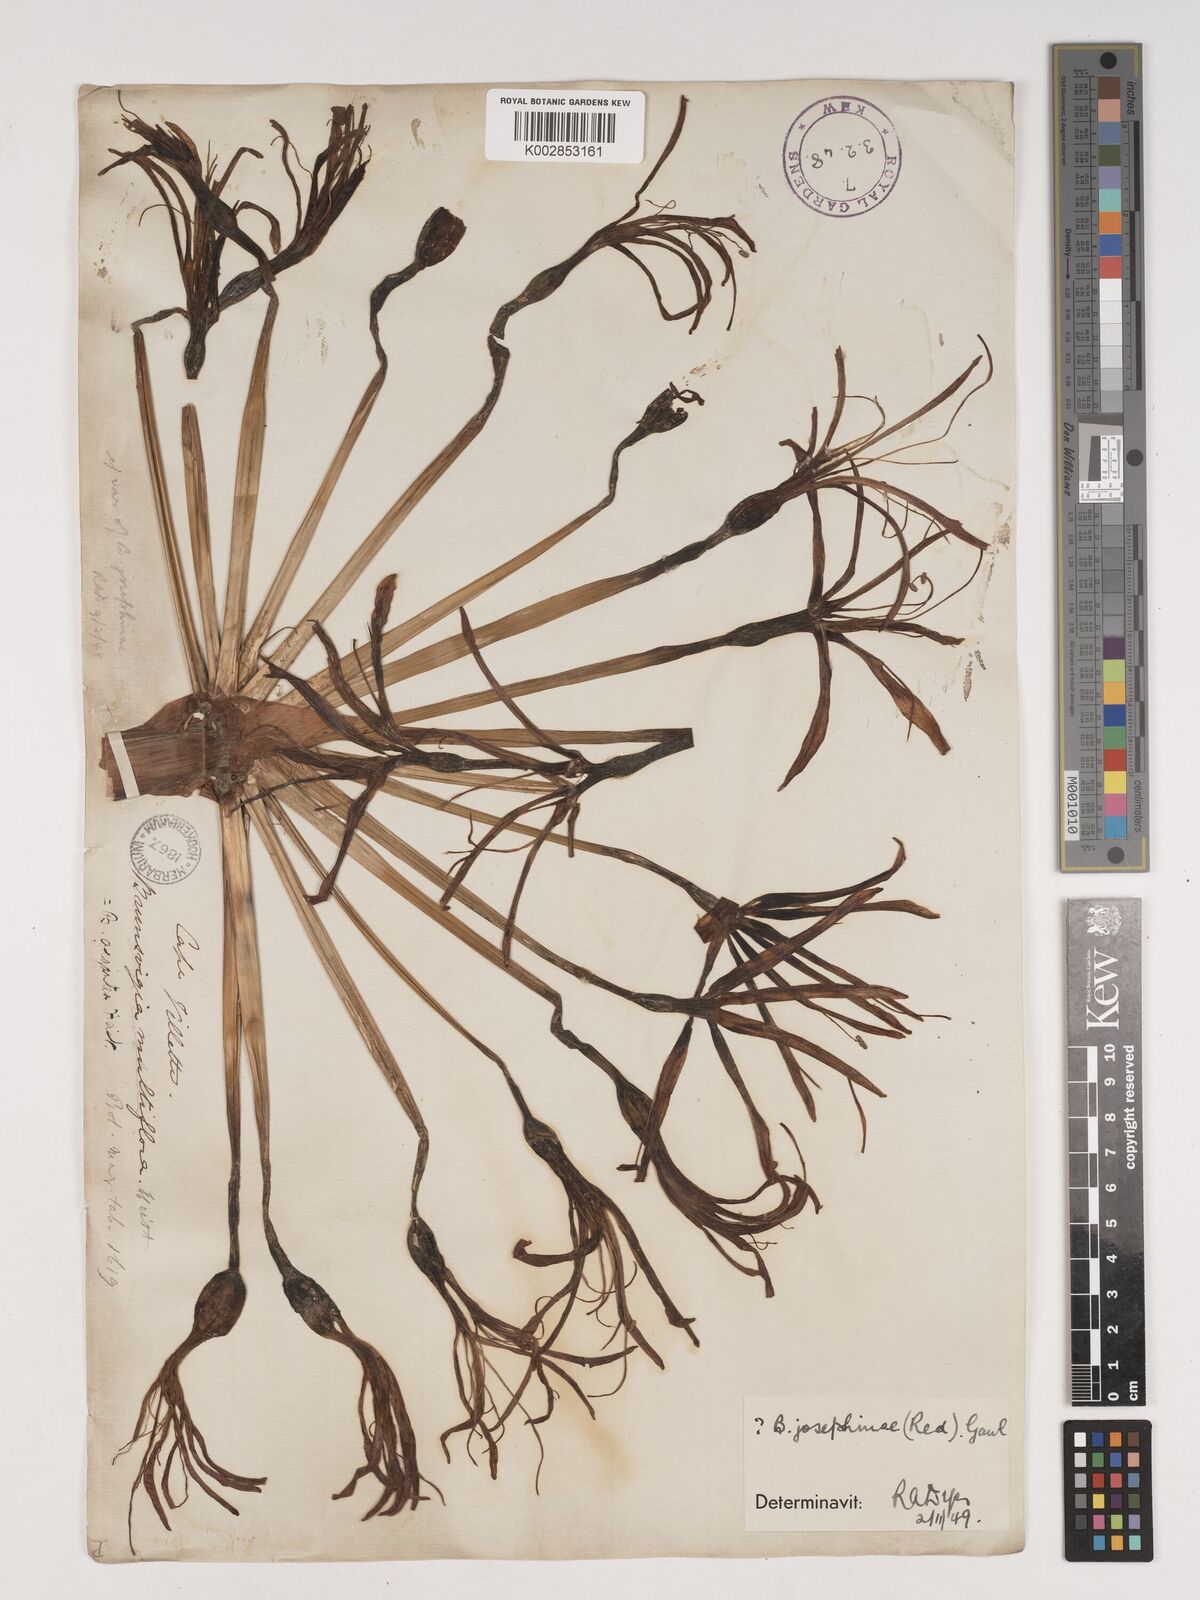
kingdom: Plantae
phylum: Tracheophyta
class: Liliopsida
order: Asparagales
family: Amaryllidaceae
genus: Brunsvigia
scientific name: Brunsvigia josephinae
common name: Josephine's-lily
